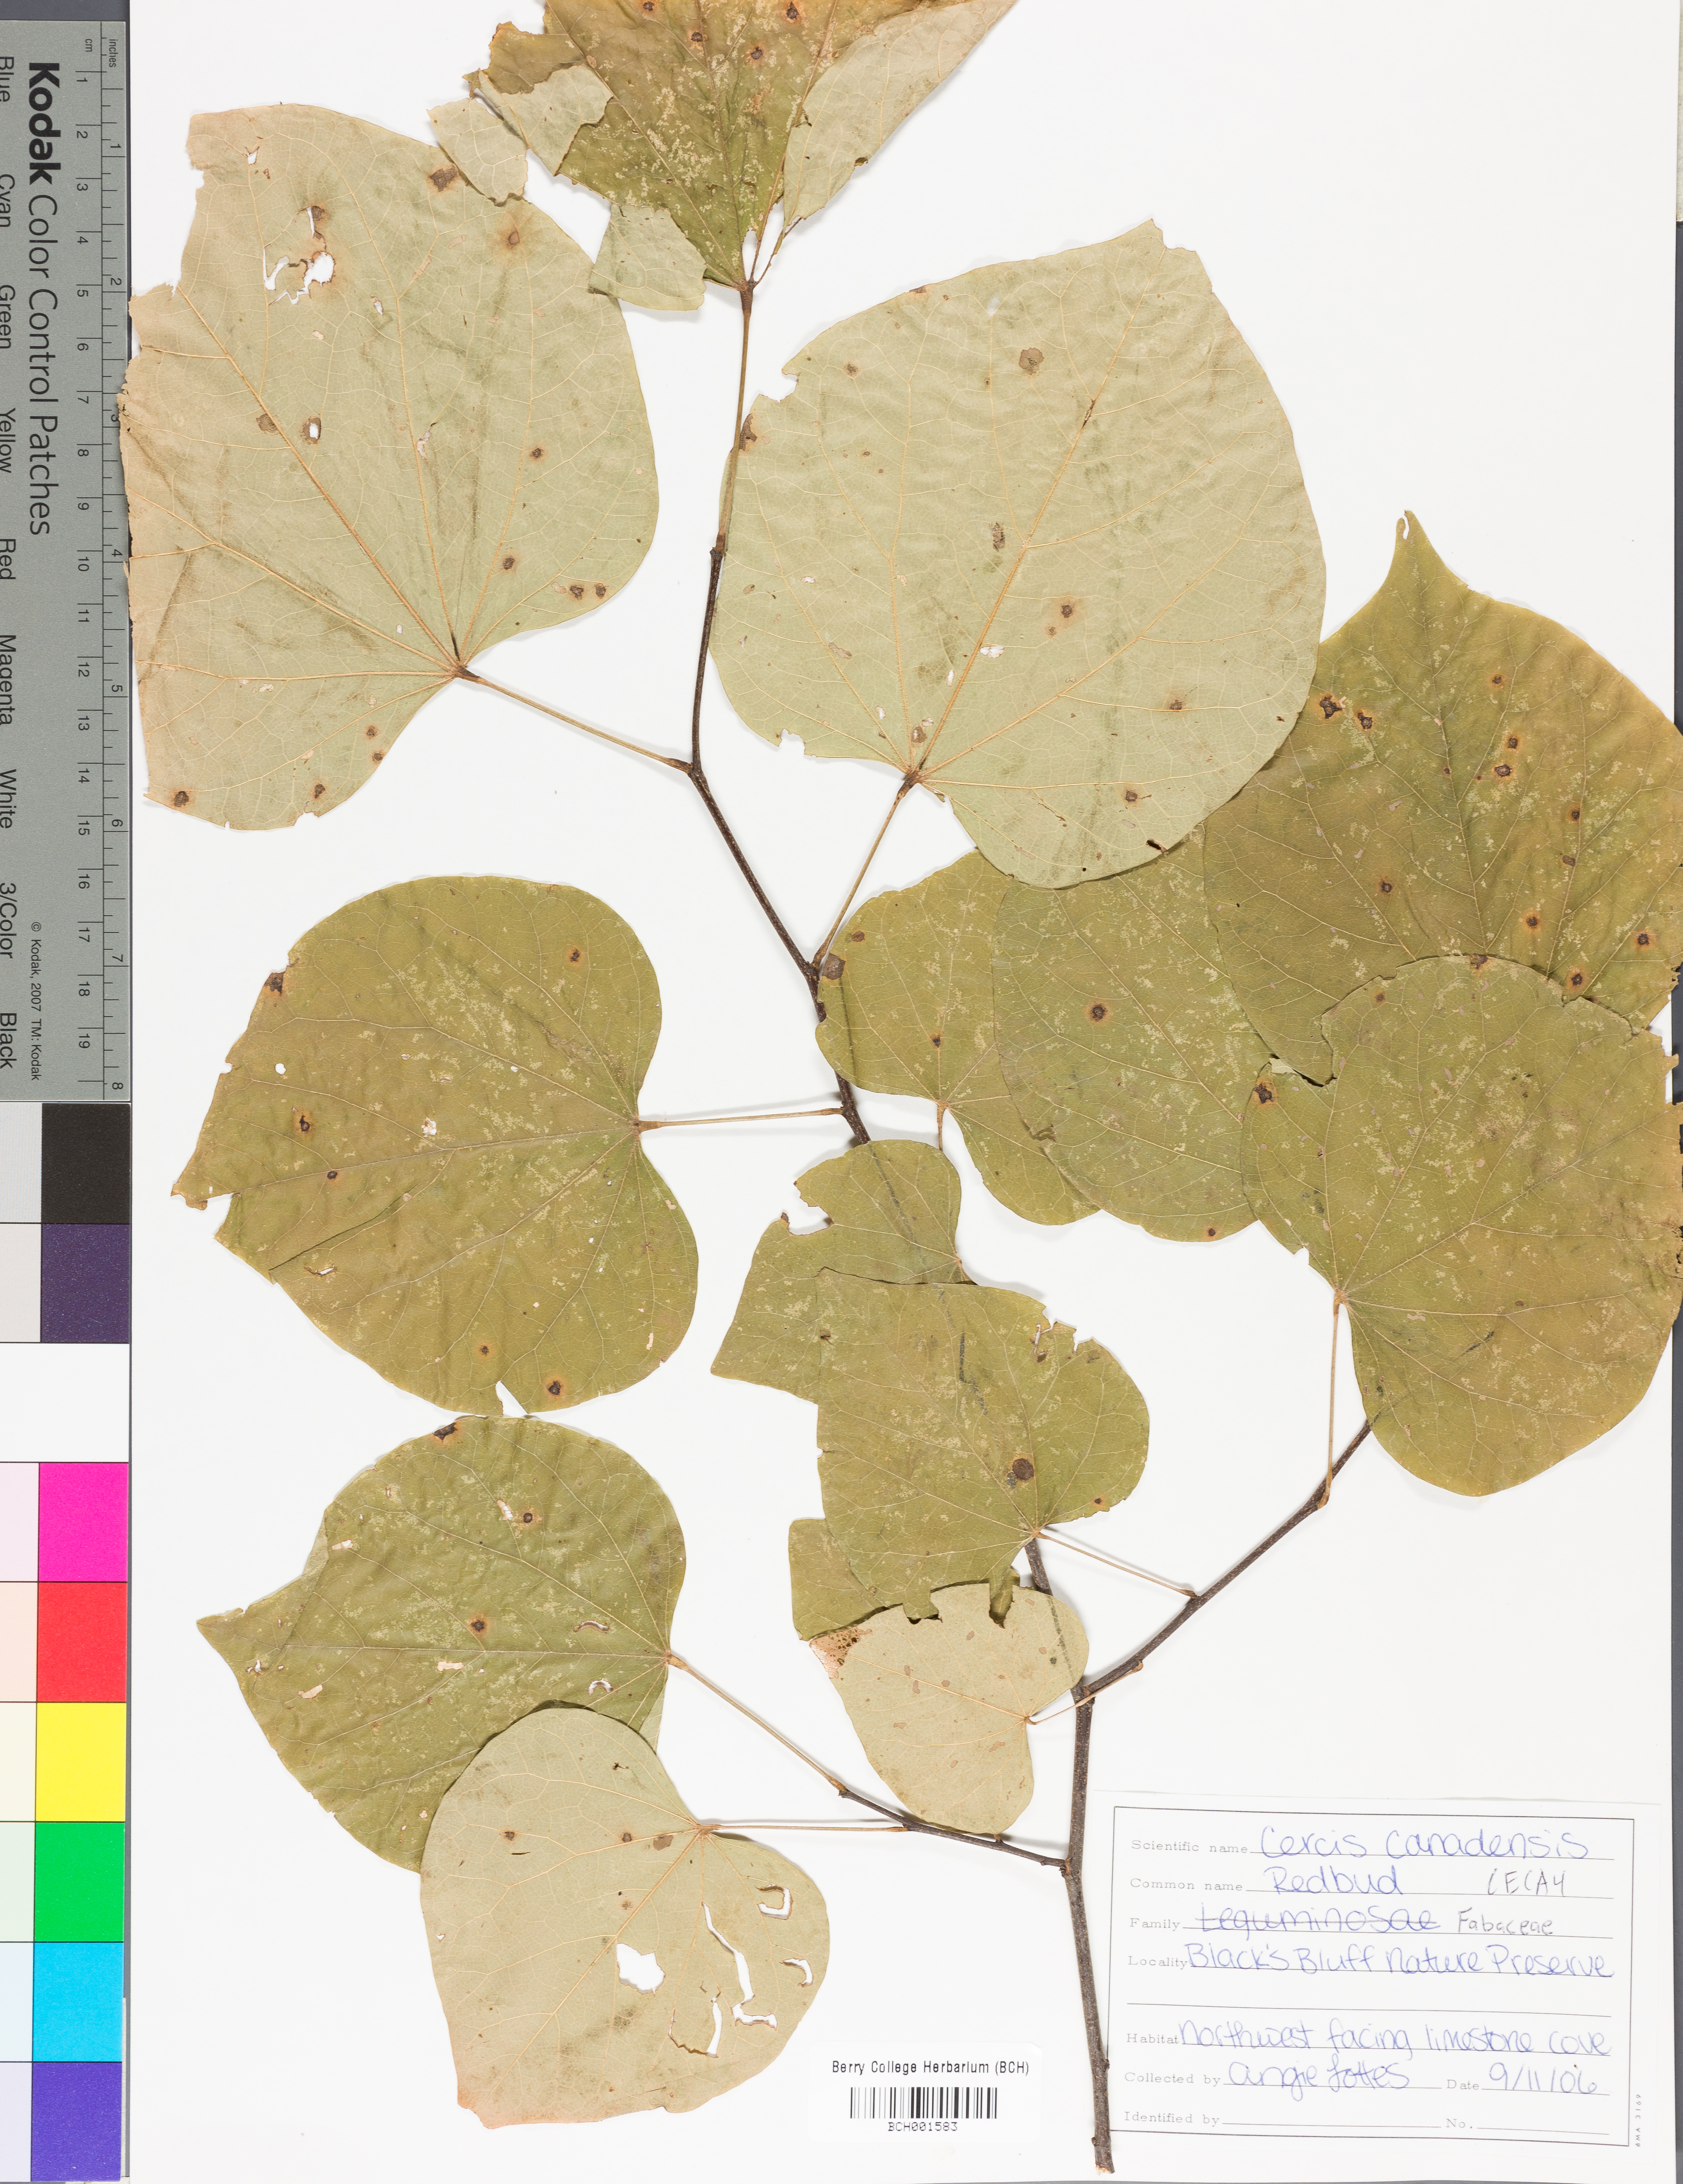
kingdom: Plantae
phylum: Tracheophyta
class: Magnoliopsida
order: Fabales
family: Fabaceae
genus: Cercis
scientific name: Cercis canadensis
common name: Eastern redbud
